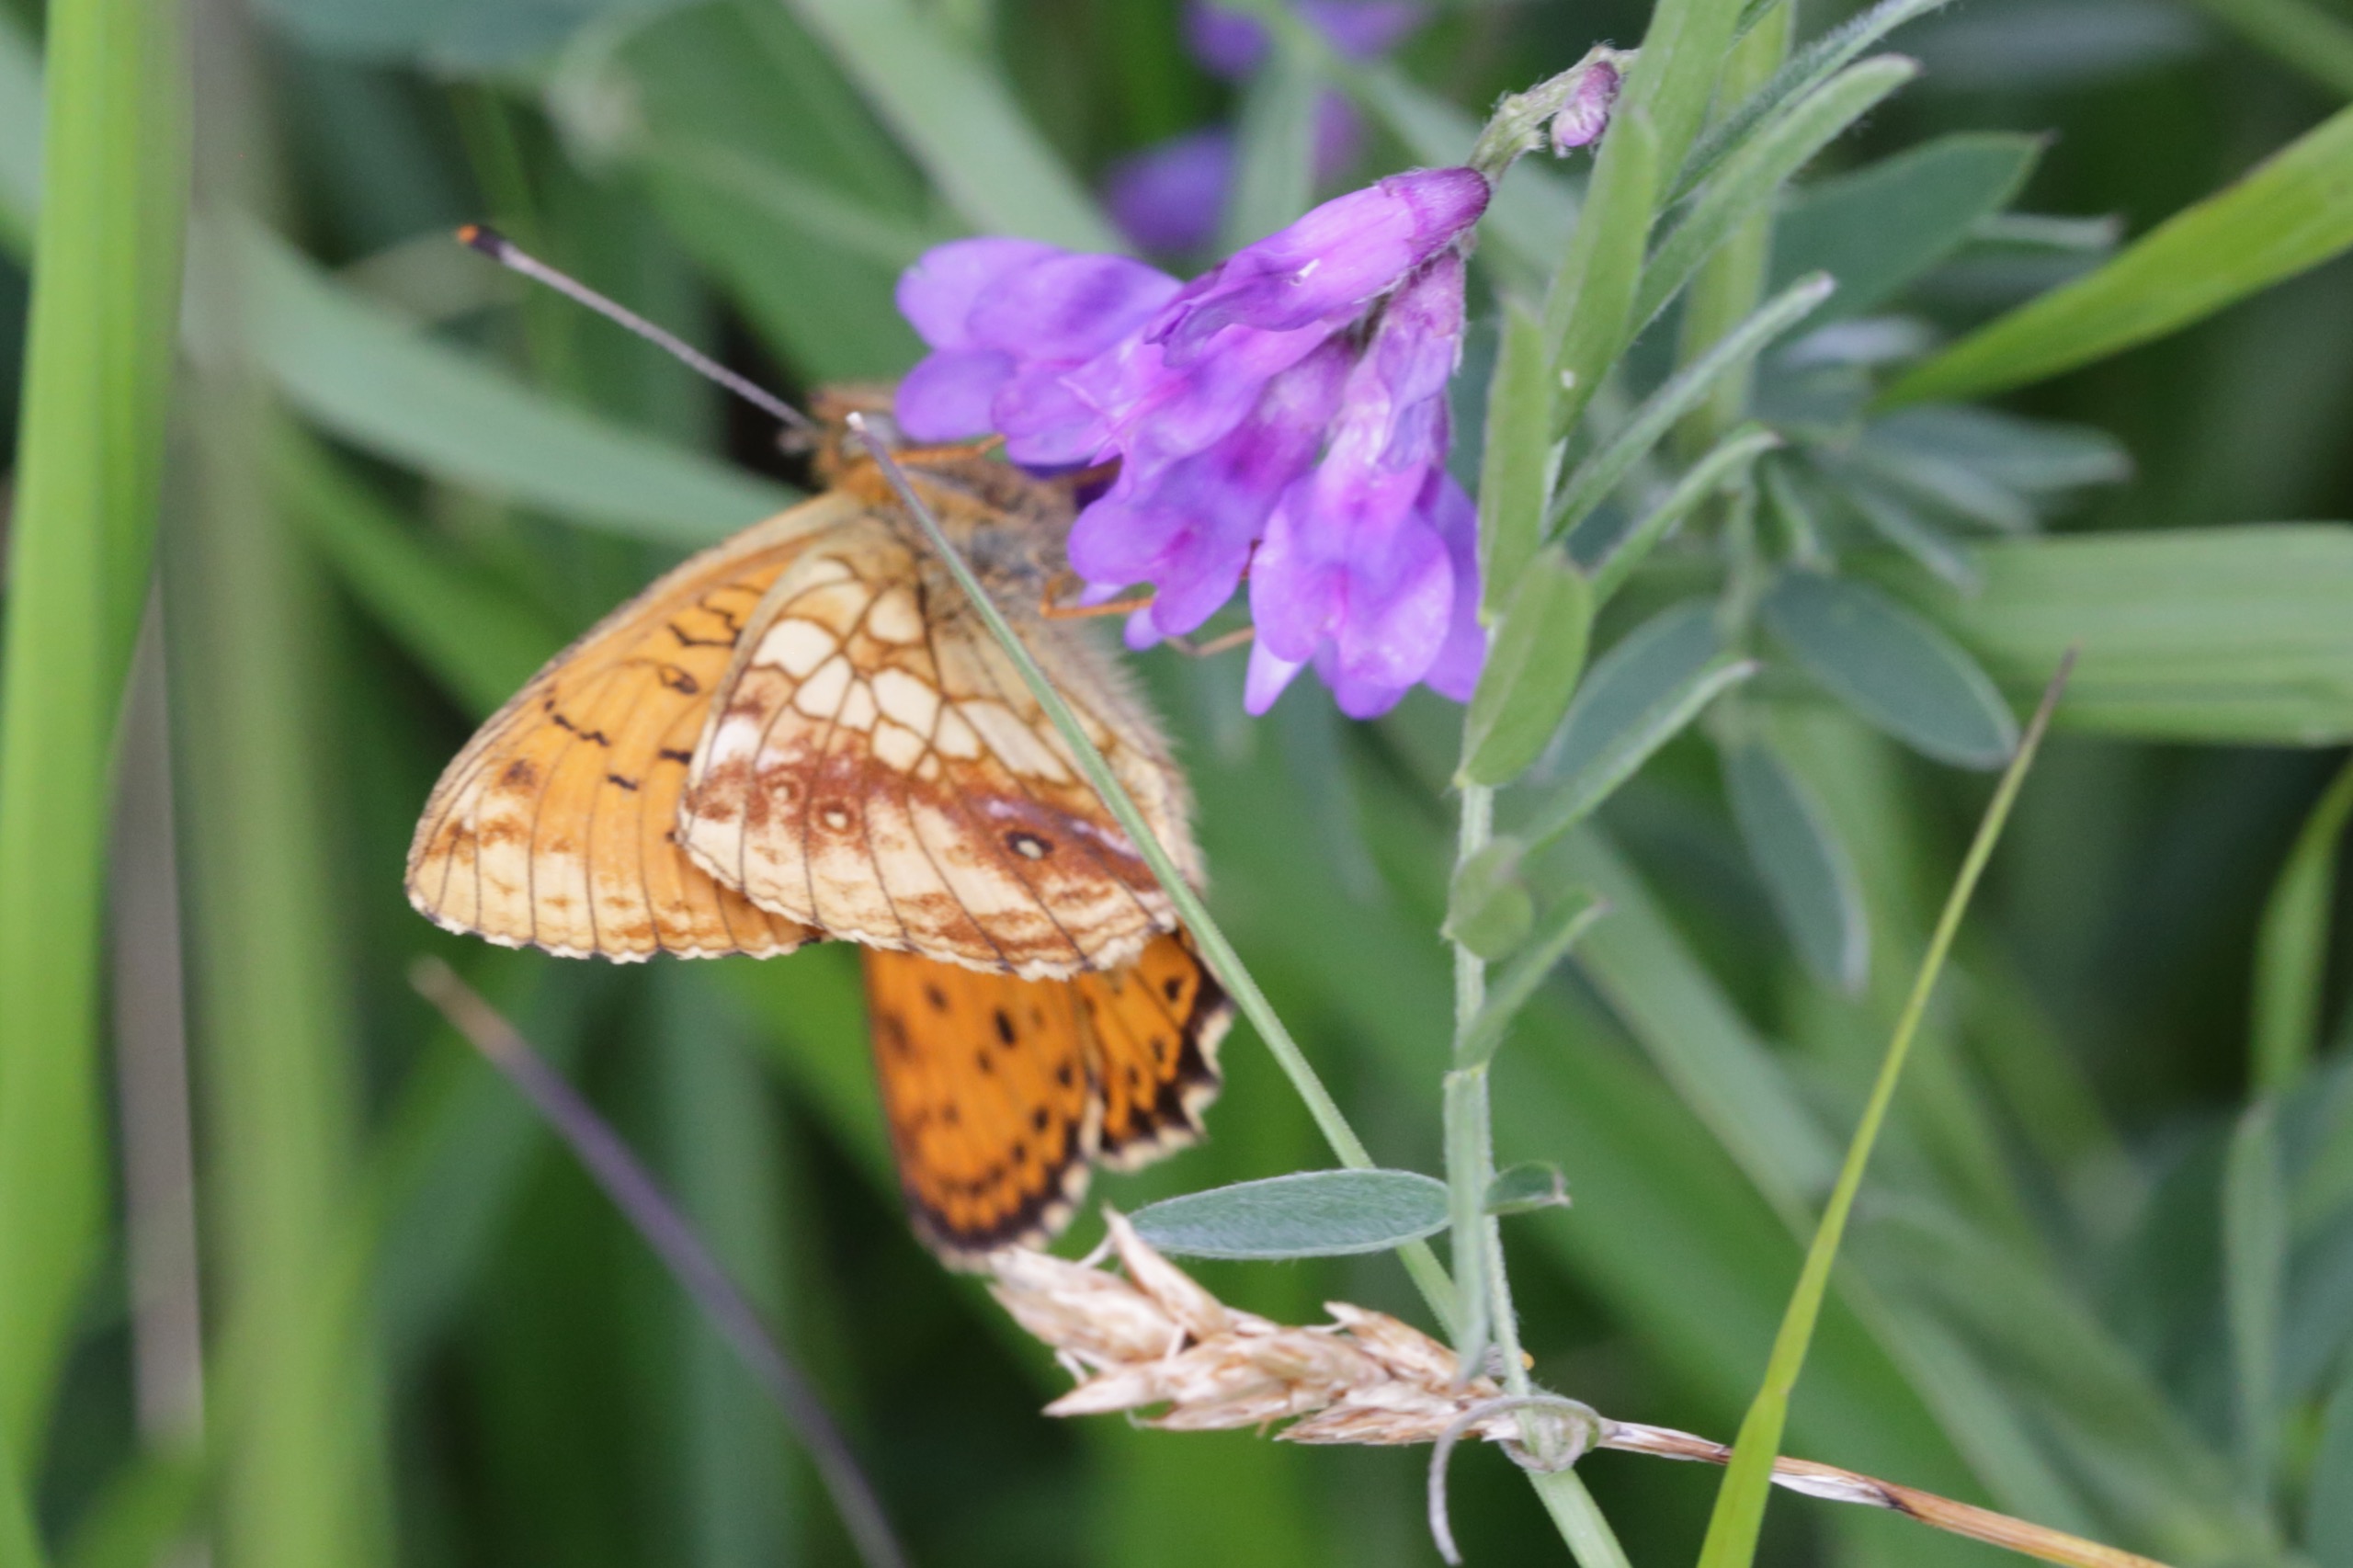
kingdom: Animalia
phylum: Arthropoda
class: Insecta
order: Lepidoptera
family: Nymphalidae
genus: Brenthis
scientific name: Brenthis ino
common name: Engperlemorsommerfugl
